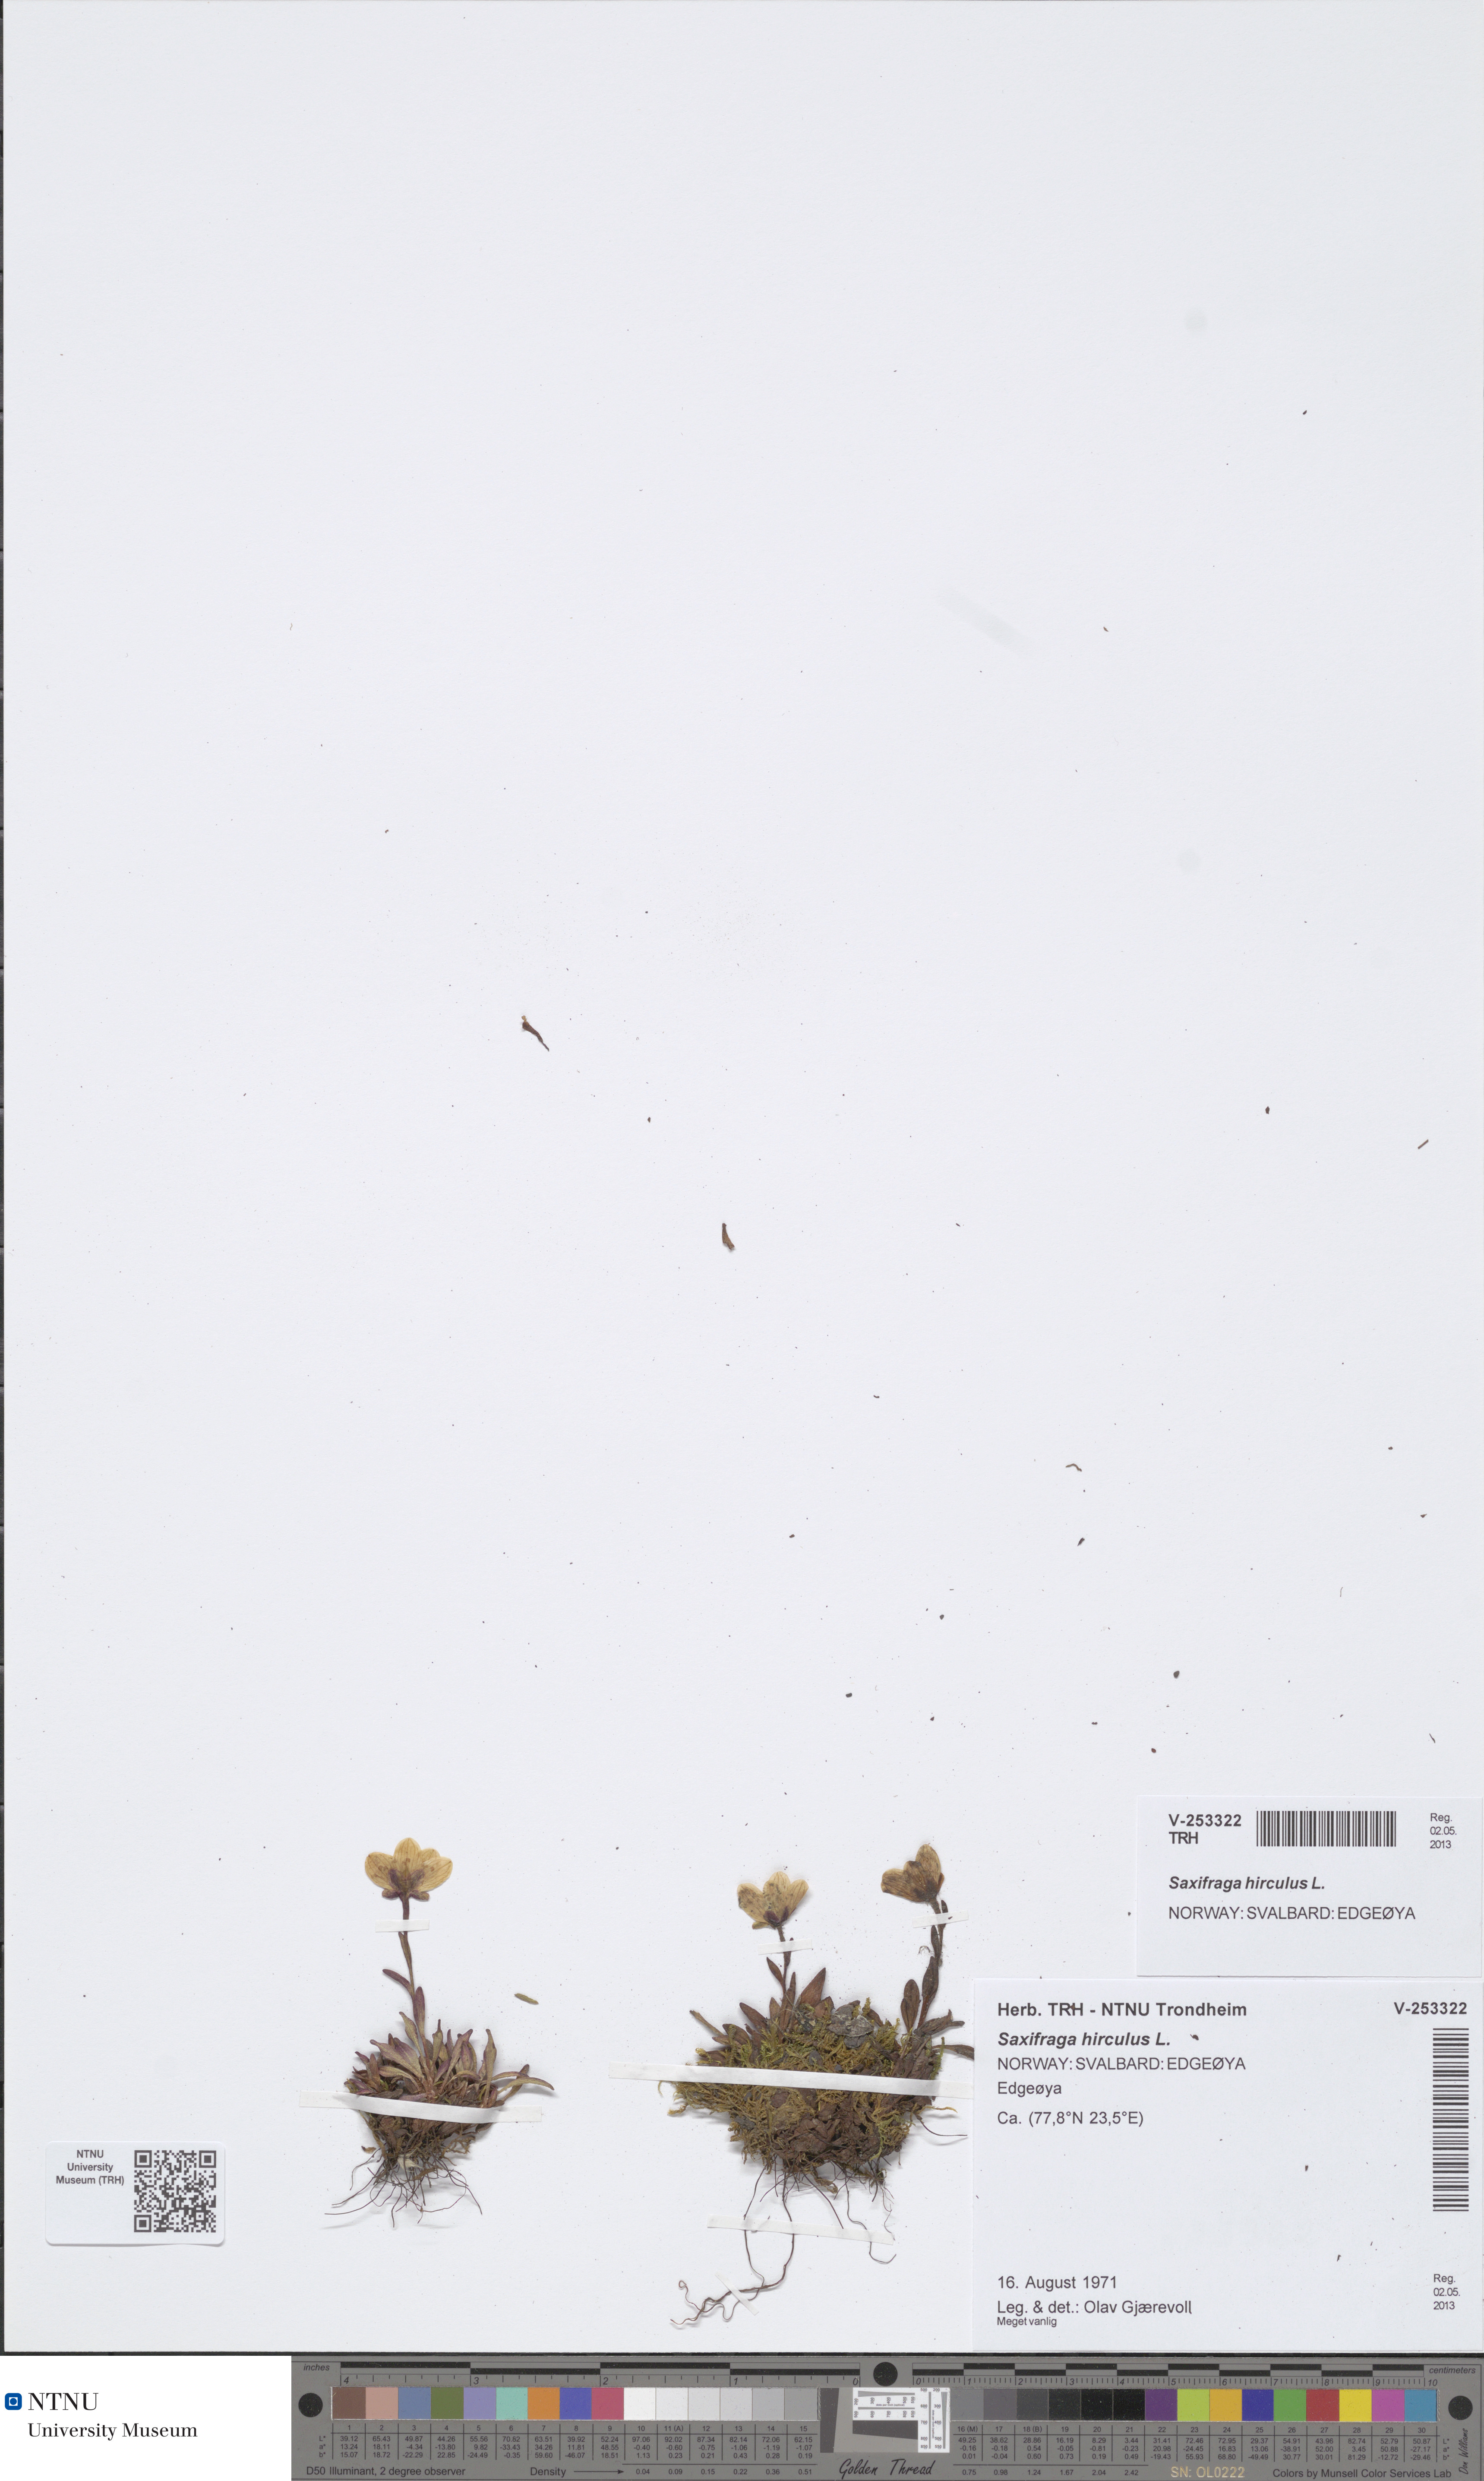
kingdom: Plantae
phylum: Tracheophyta
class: Magnoliopsida
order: Saxifragales
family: Saxifragaceae
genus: Saxifraga
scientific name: Saxifraga hirculus
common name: Yellow marsh saxifrage
